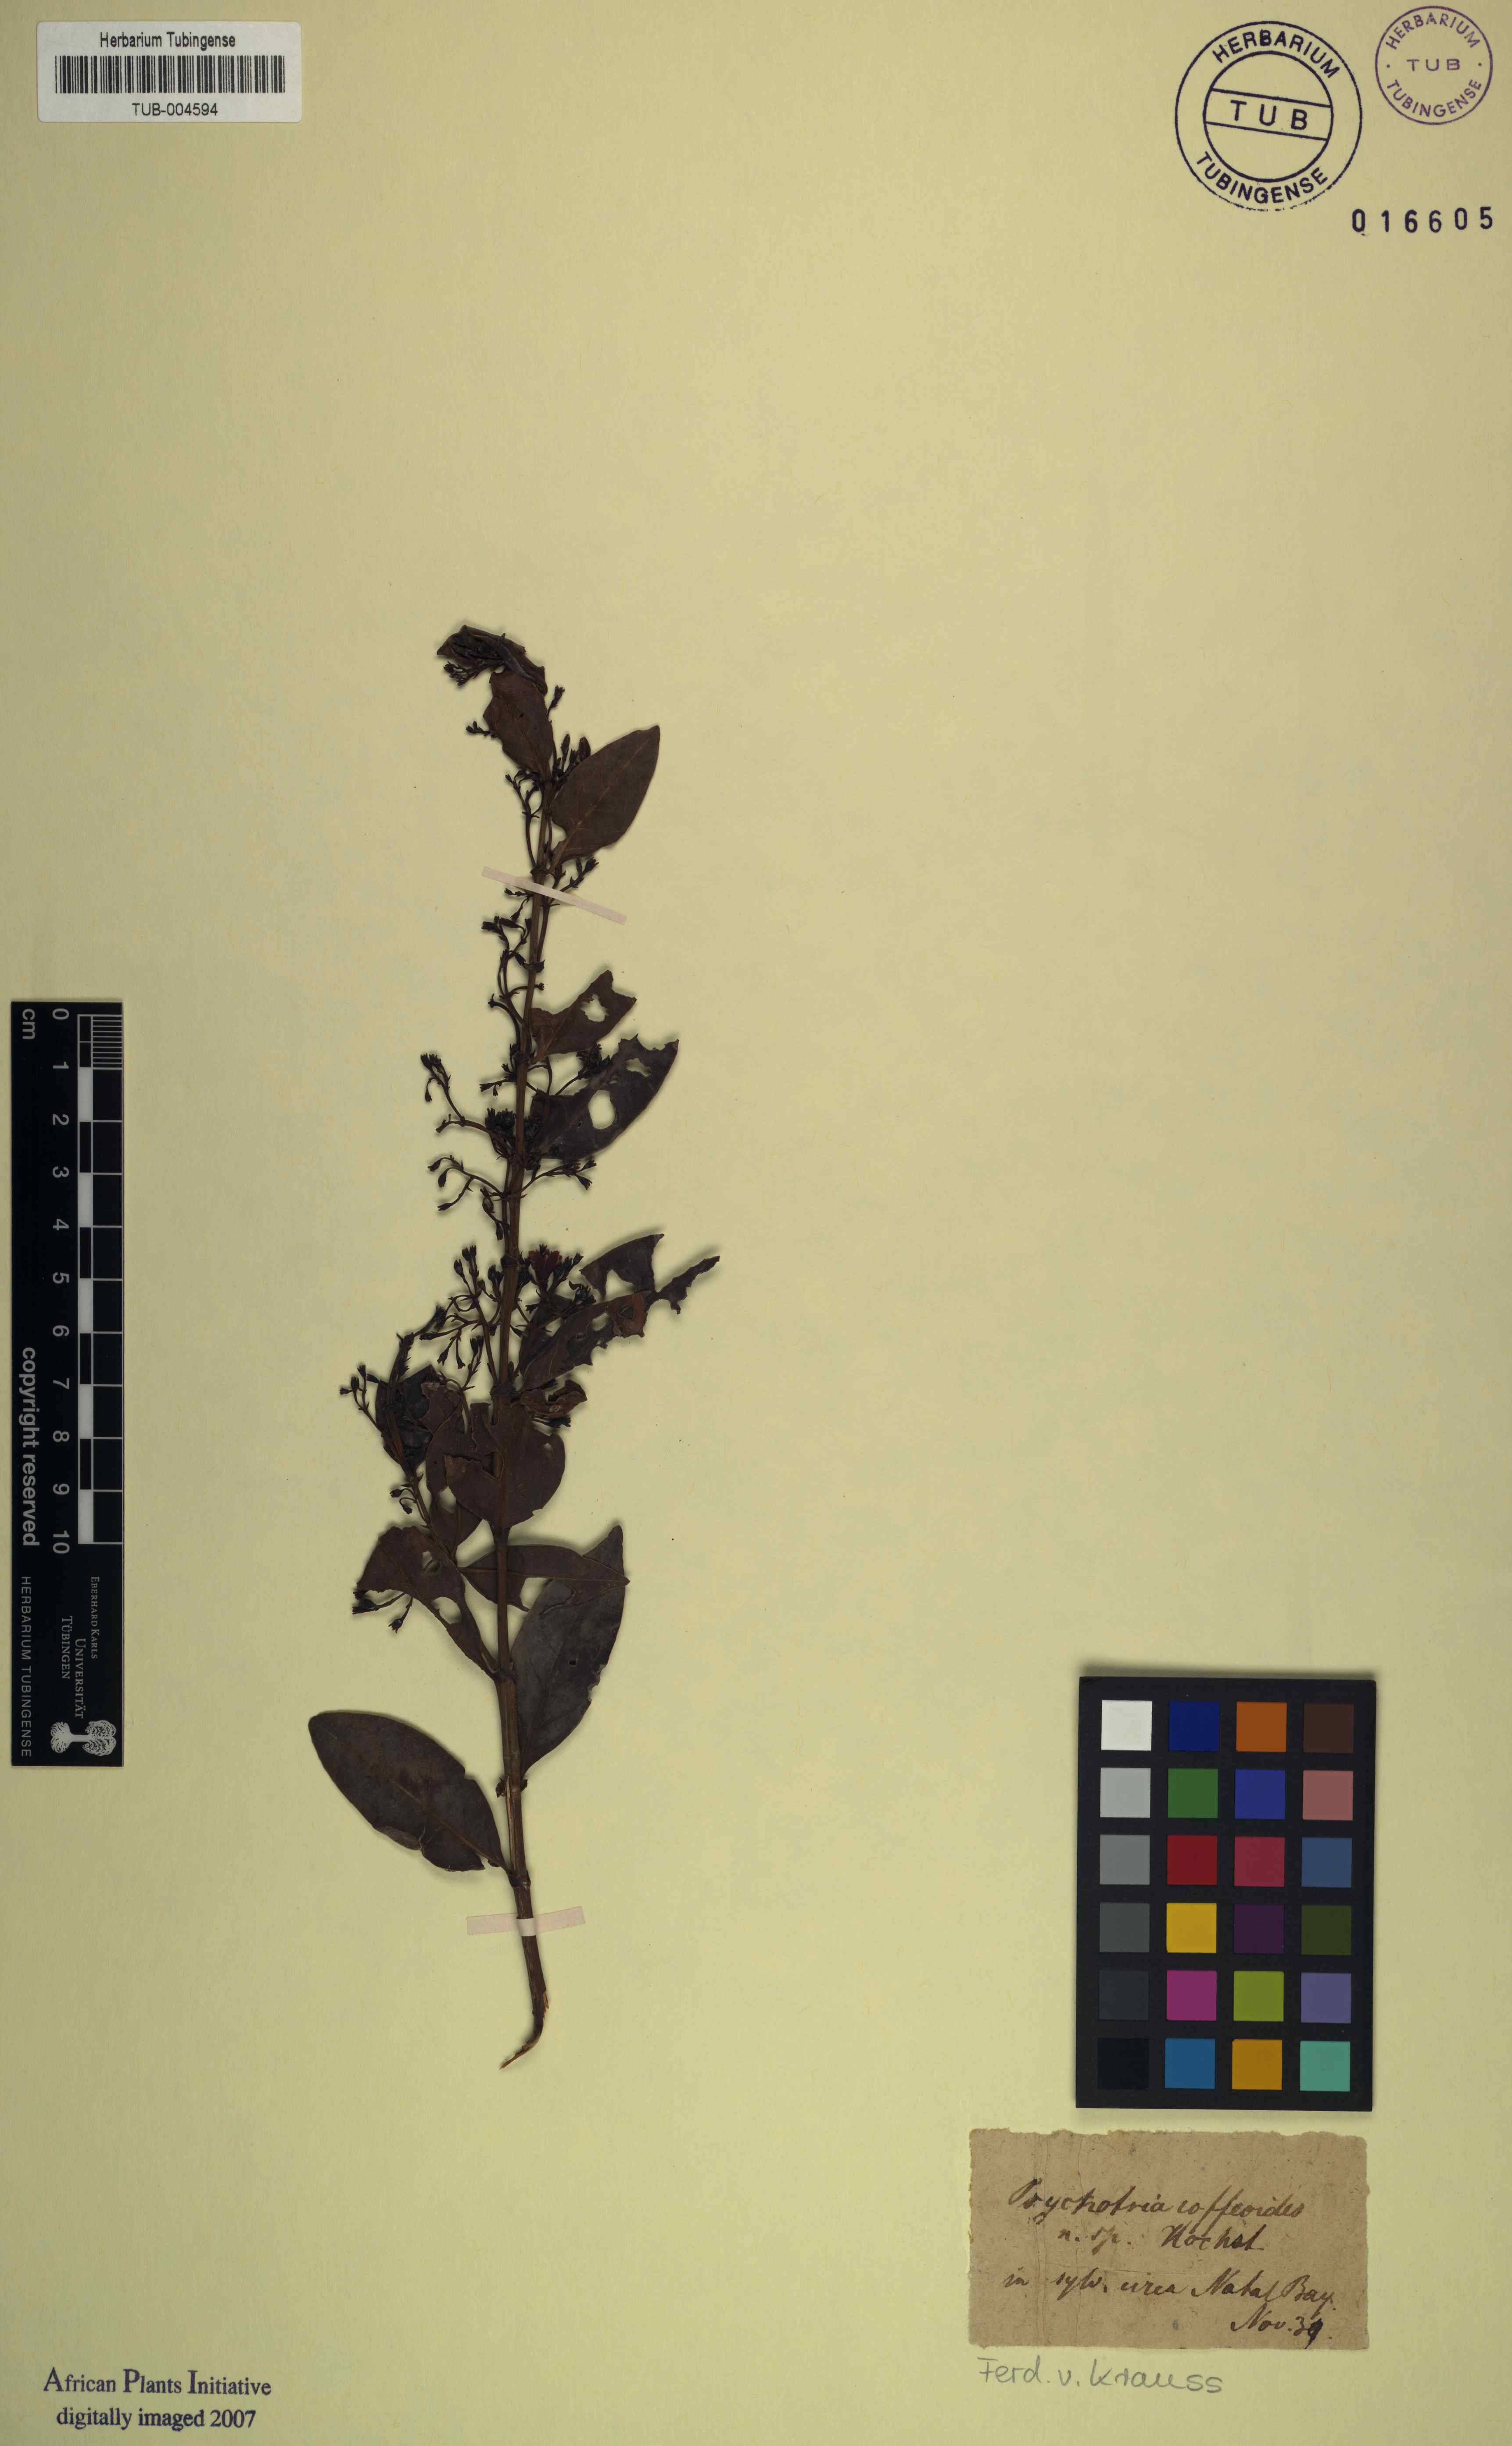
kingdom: Plantae
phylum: Tracheophyta
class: Magnoliopsida
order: Gentianales
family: Rubiaceae
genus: Psychotria
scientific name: Psychotria
